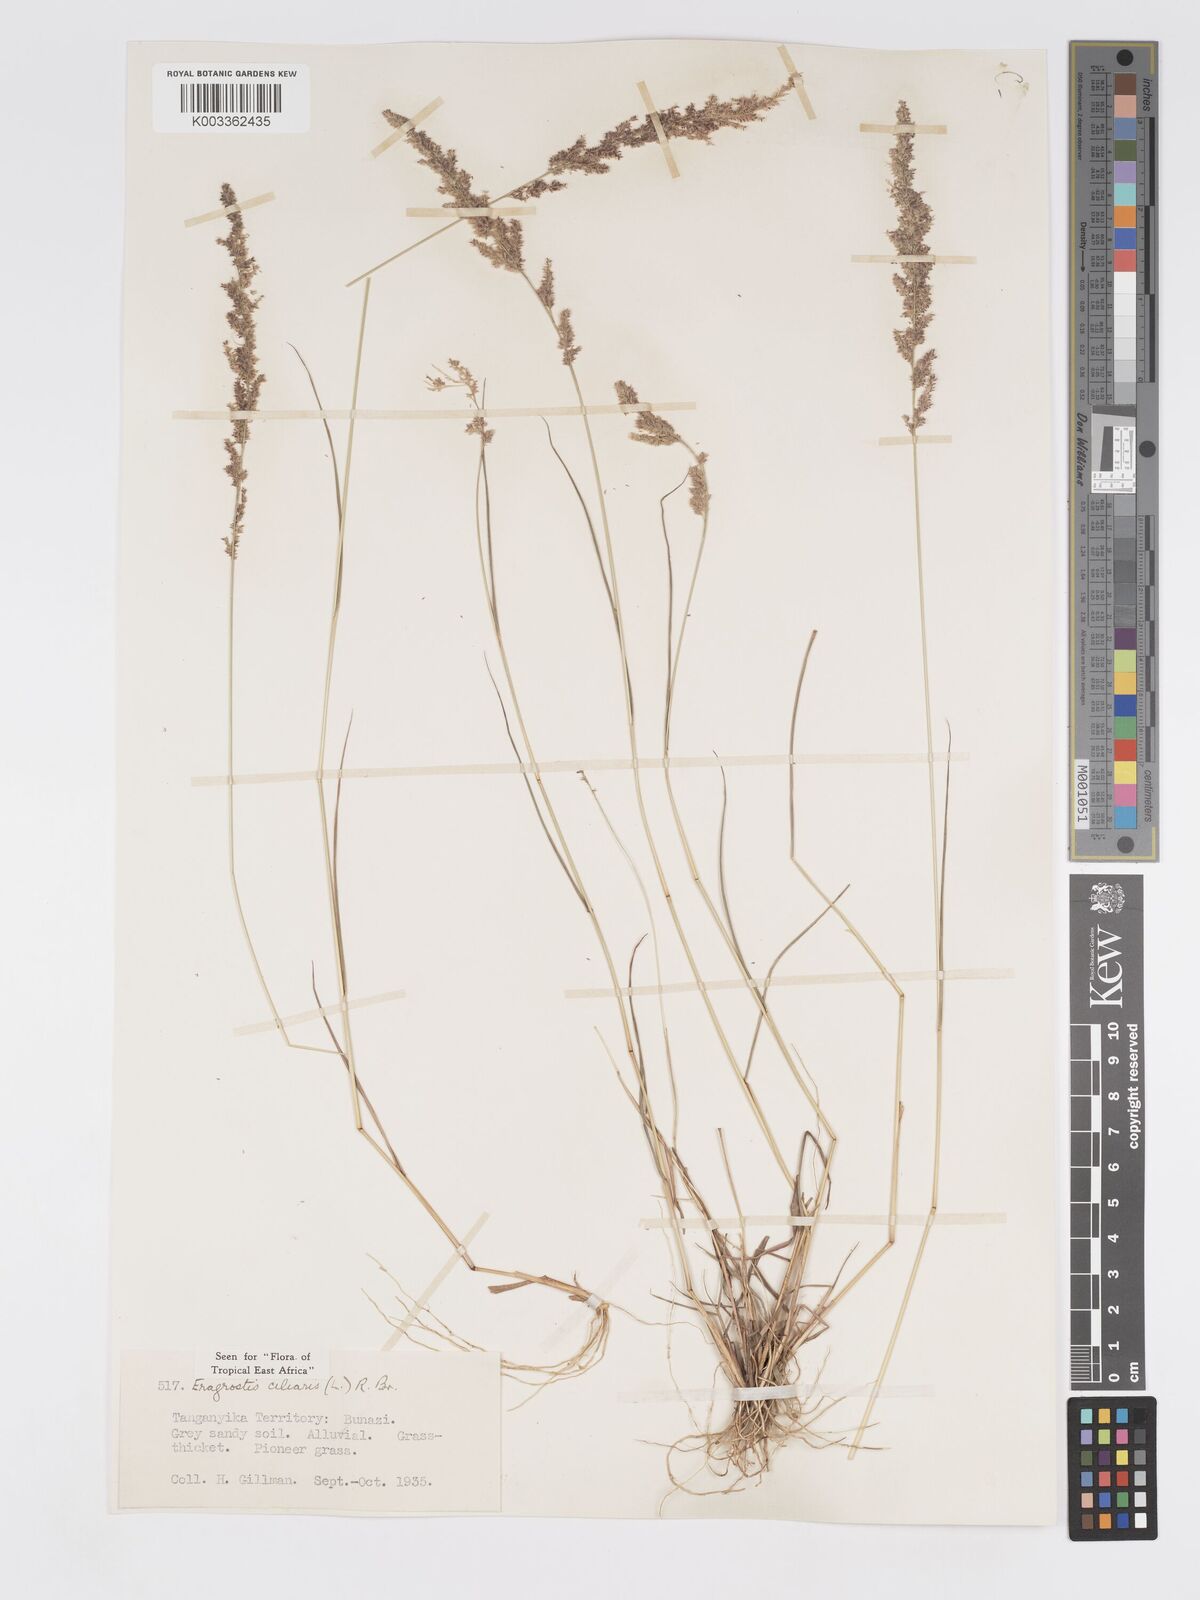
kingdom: Plantae
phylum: Tracheophyta
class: Liliopsida
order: Poales
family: Poaceae
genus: Eragrostis
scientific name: Eragrostis ciliaris
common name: Gophertail lovegrass
